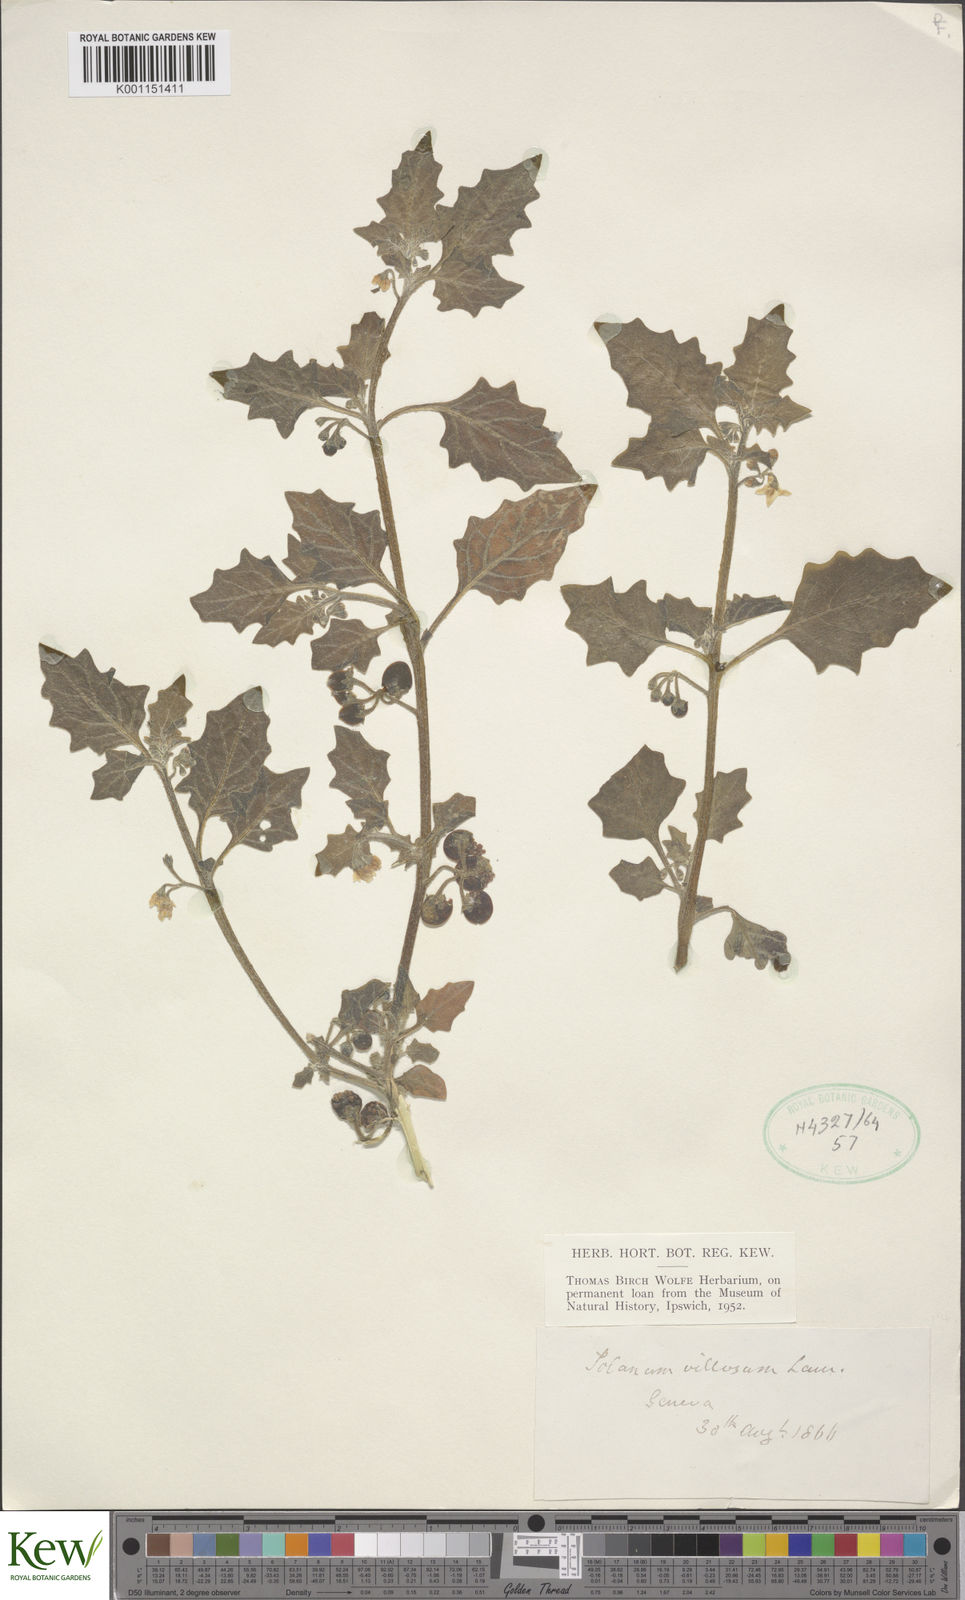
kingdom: Plantae
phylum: Tracheophyta
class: Magnoliopsida
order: Solanales
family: Solanaceae
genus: Solanum
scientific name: Solanum villosum
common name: Red nightshade
